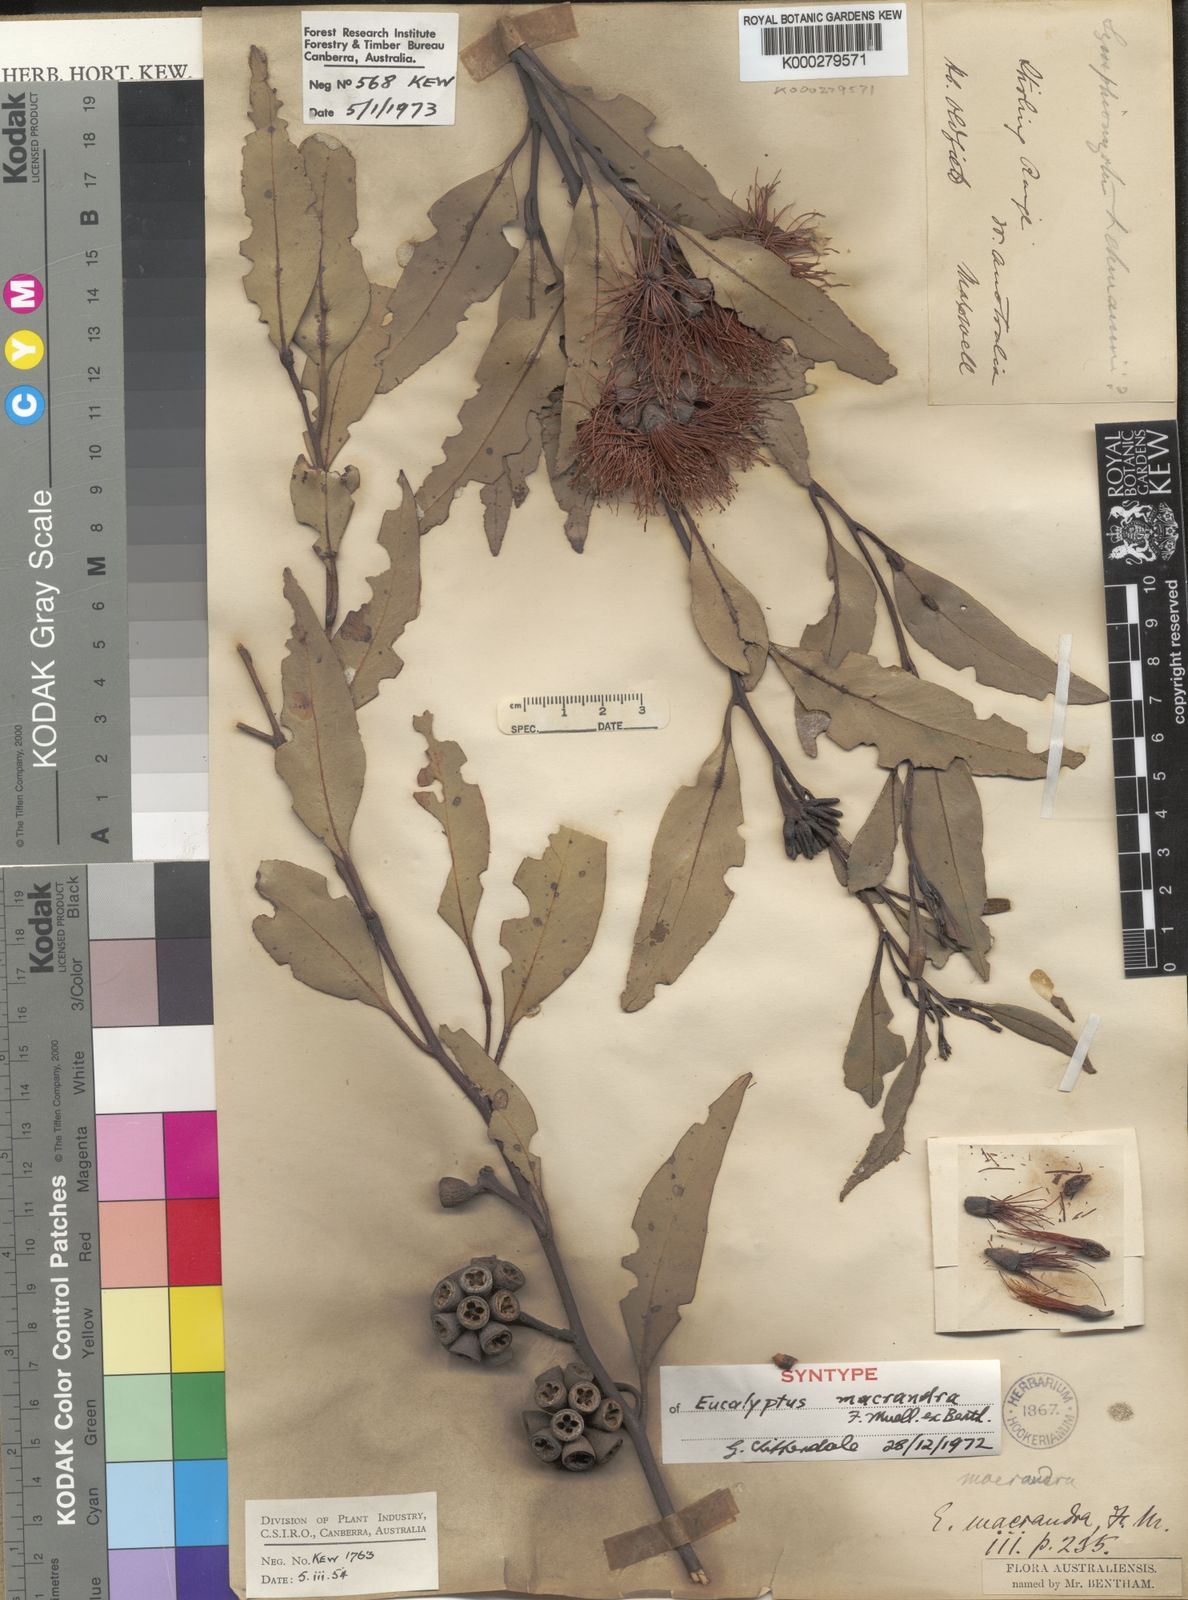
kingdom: Plantae
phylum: Tracheophyta
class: Magnoliopsida
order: Myrtales
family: Myrtaceae
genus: Eucalyptus
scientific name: Eucalyptus macrandra
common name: Longleaf marlock
